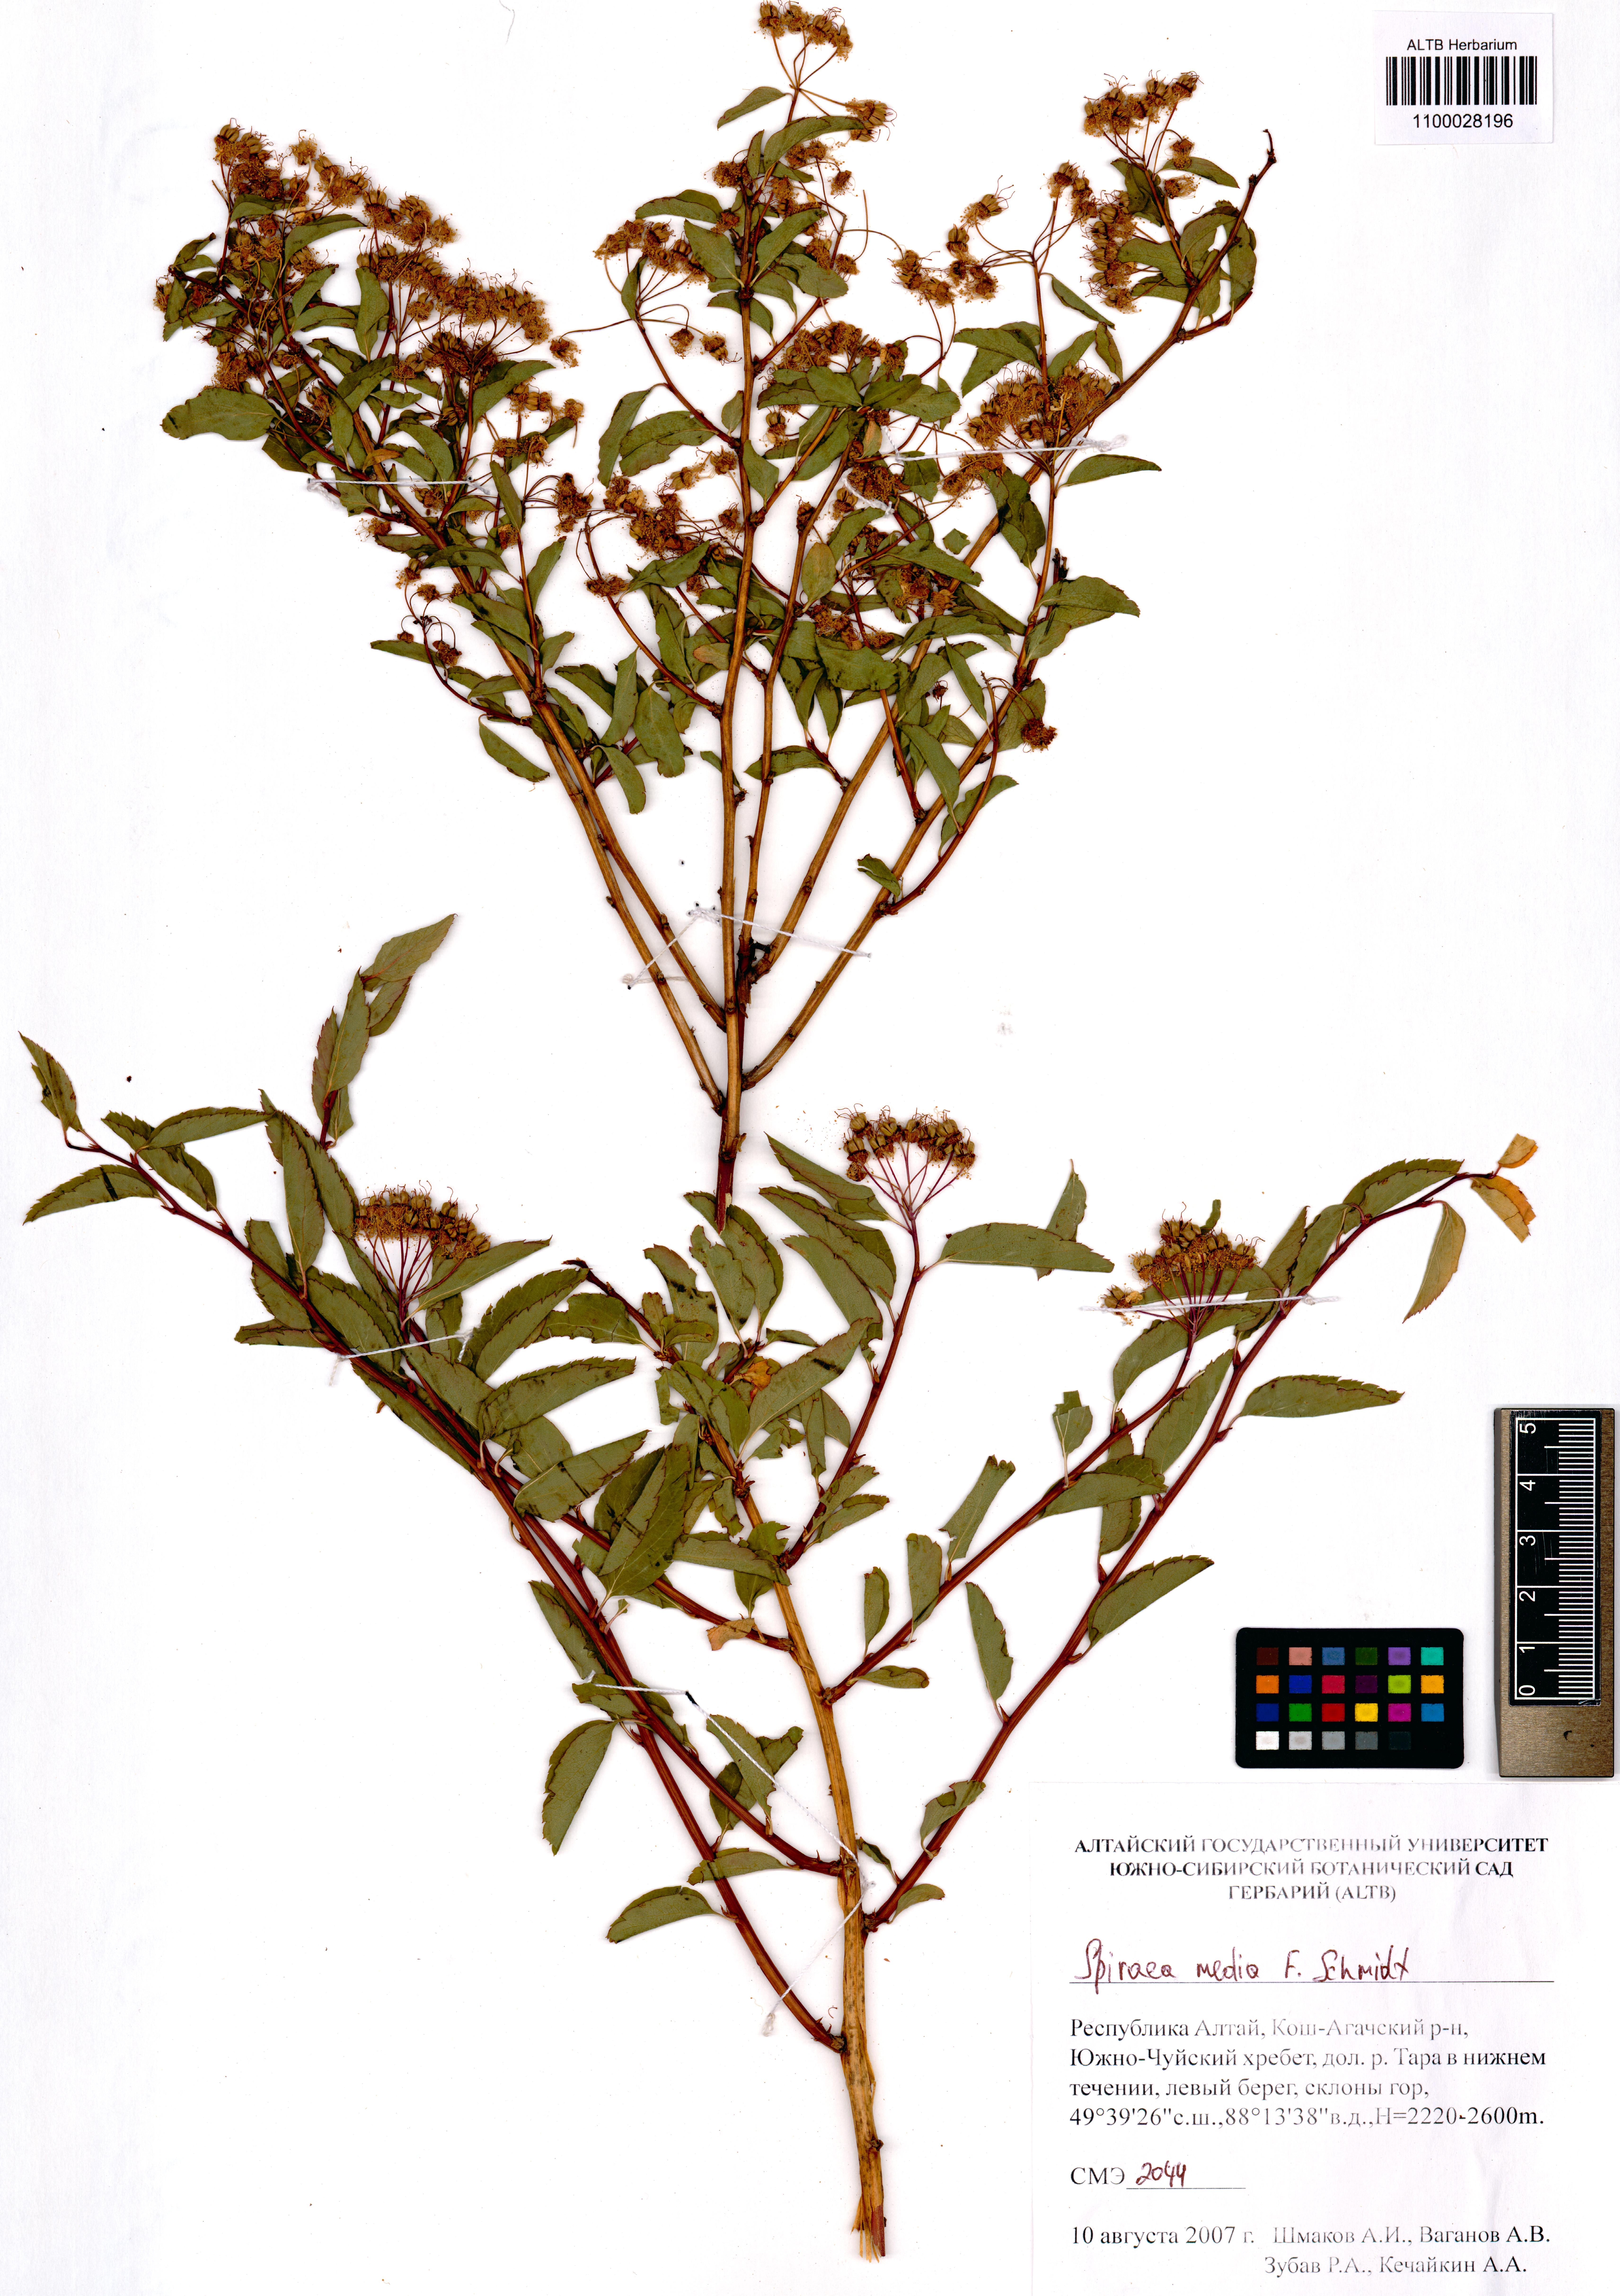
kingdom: Plantae
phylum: Tracheophyta
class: Magnoliopsida
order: Rosales
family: Rosaceae
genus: Spiraea
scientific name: Spiraea media
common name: Russian spiraea
